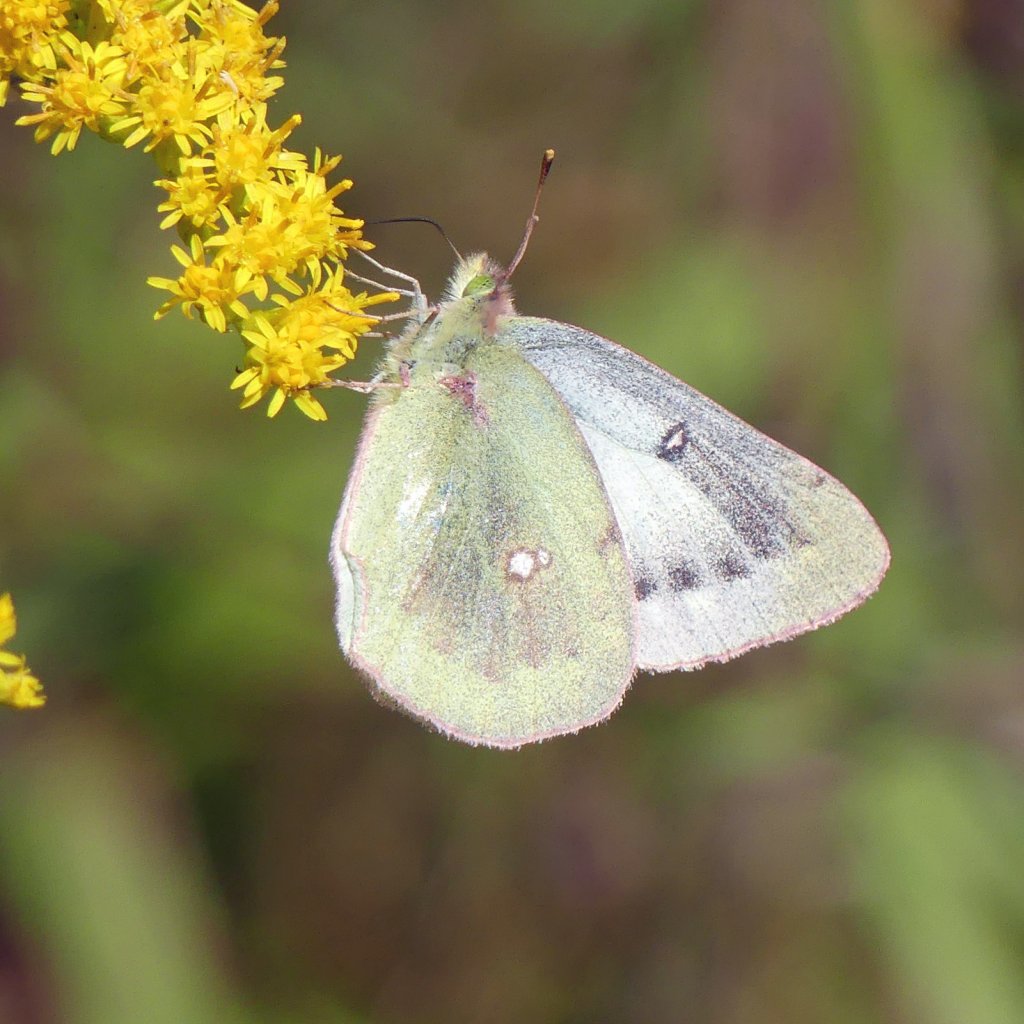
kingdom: Animalia
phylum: Arthropoda
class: Insecta
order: Lepidoptera
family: Pieridae
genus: Colias
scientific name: Colias philodice
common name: Clouded Sulphur
